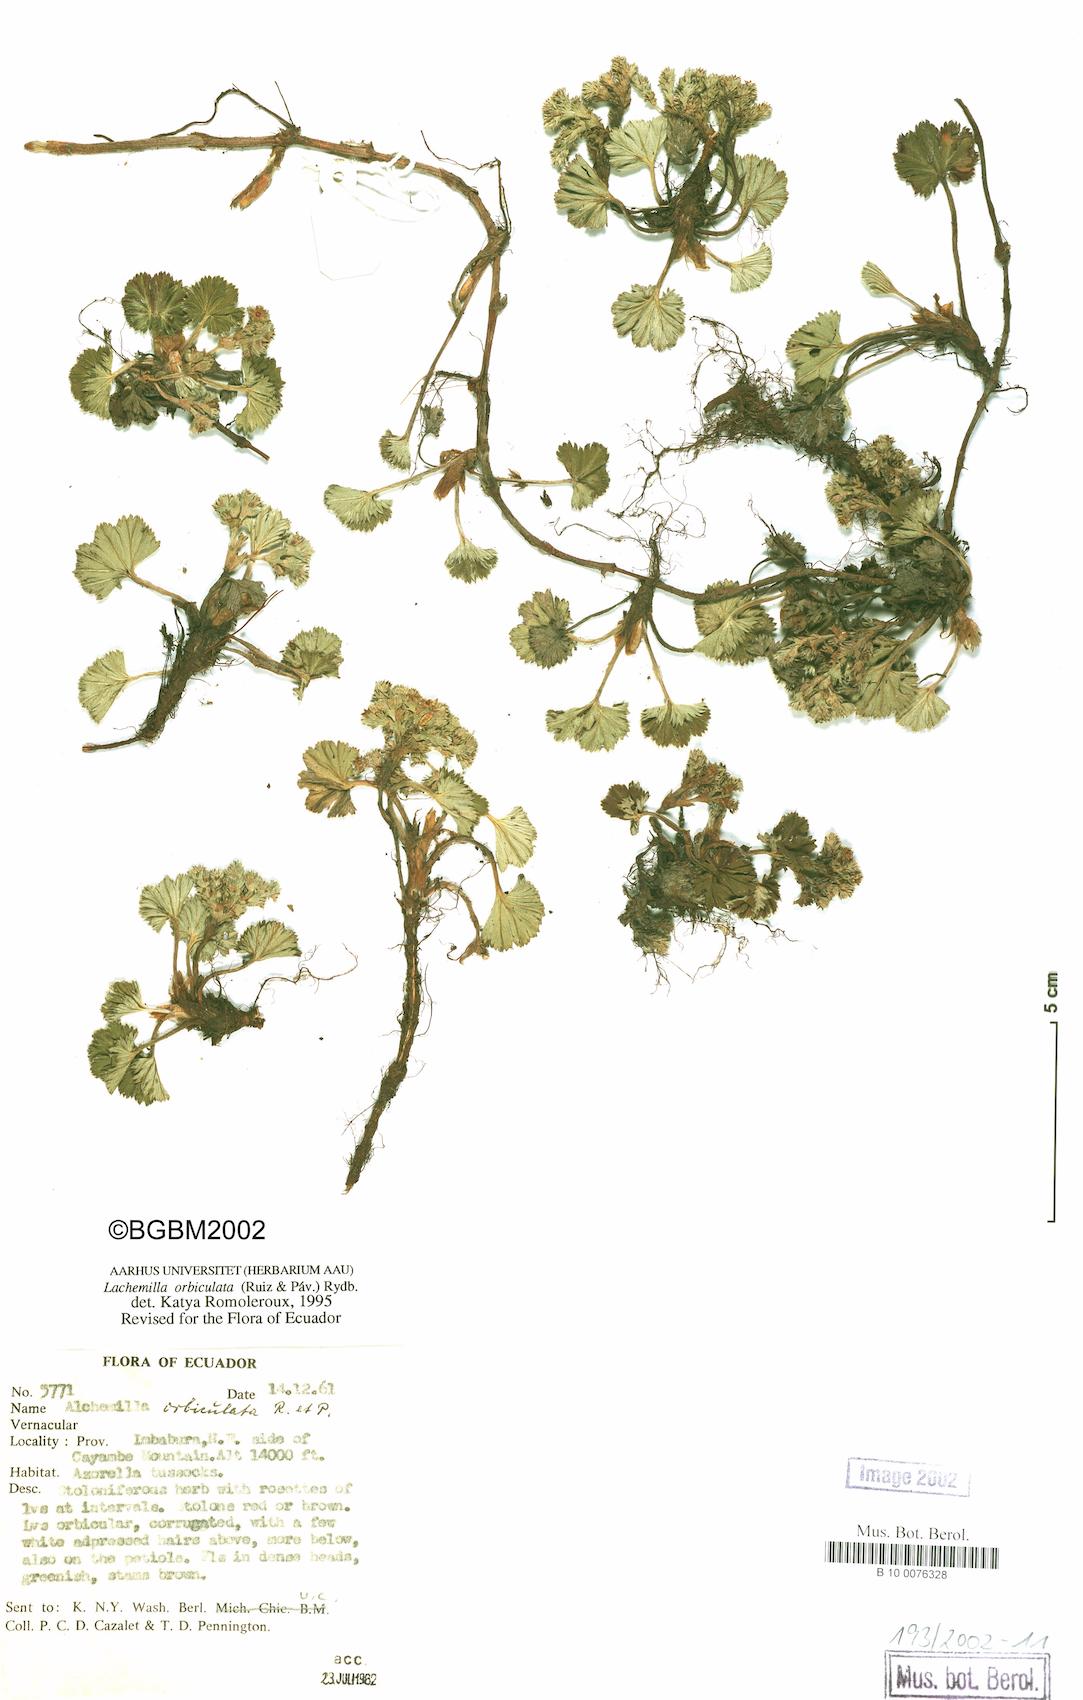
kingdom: Plantae
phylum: Tracheophyta
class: Magnoliopsida
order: Rosales
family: Rosaceae
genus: Lachemilla
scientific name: Lachemilla orbiculata
